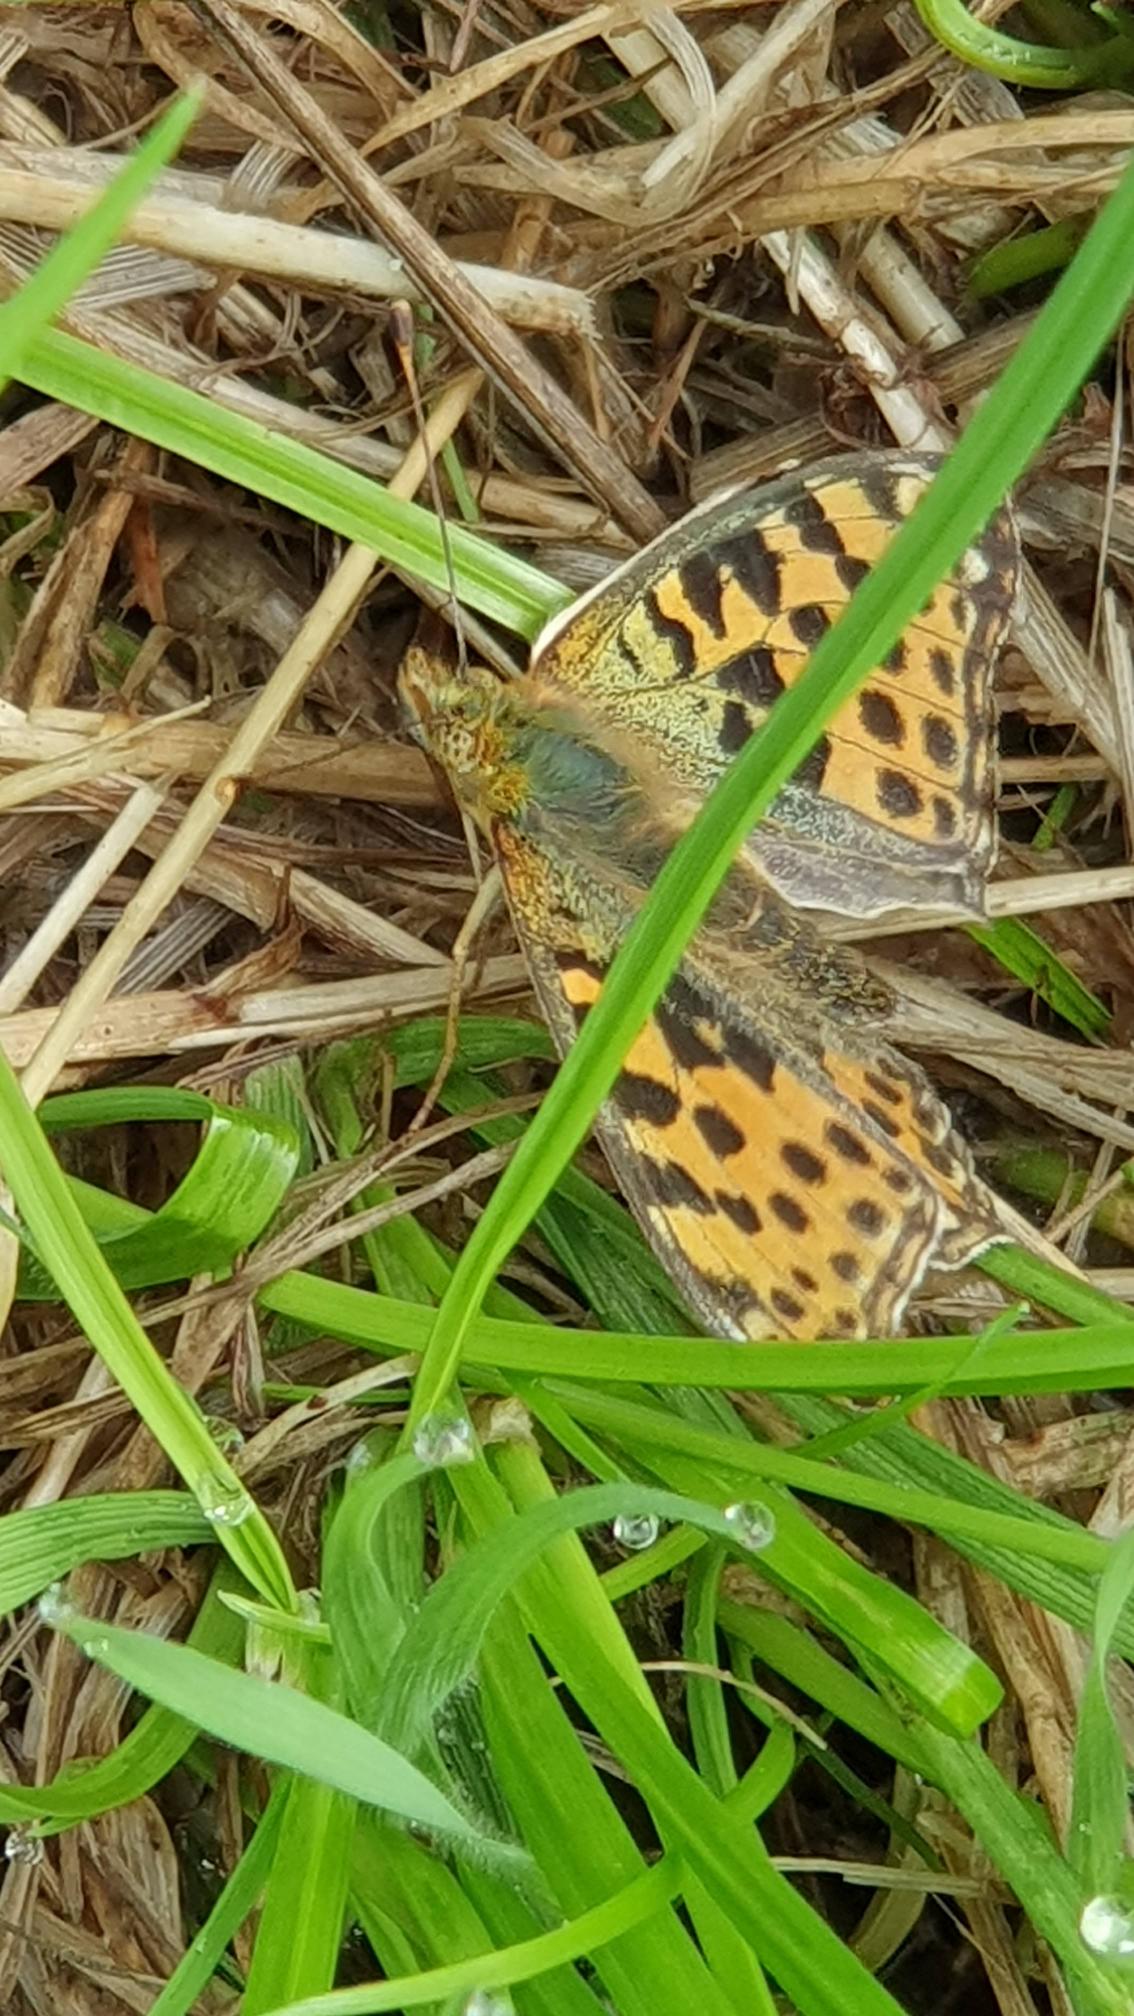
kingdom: Animalia
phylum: Arthropoda
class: Insecta
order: Lepidoptera
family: Nymphalidae
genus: Issoria
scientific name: Issoria lathonia
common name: Storplettet perlemorsommerfugl
